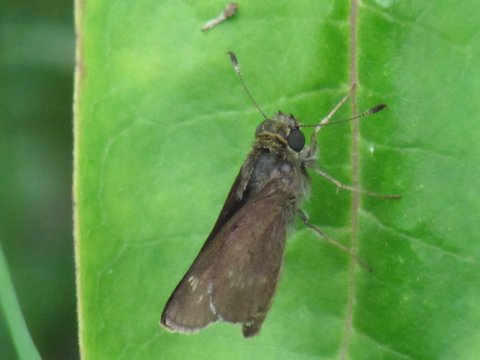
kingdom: Animalia
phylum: Arthropoda
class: Insecta
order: Lepidoptera
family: Hesperiidae
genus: Polites
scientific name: Polites egeremet
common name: Northern Broken-Dash
